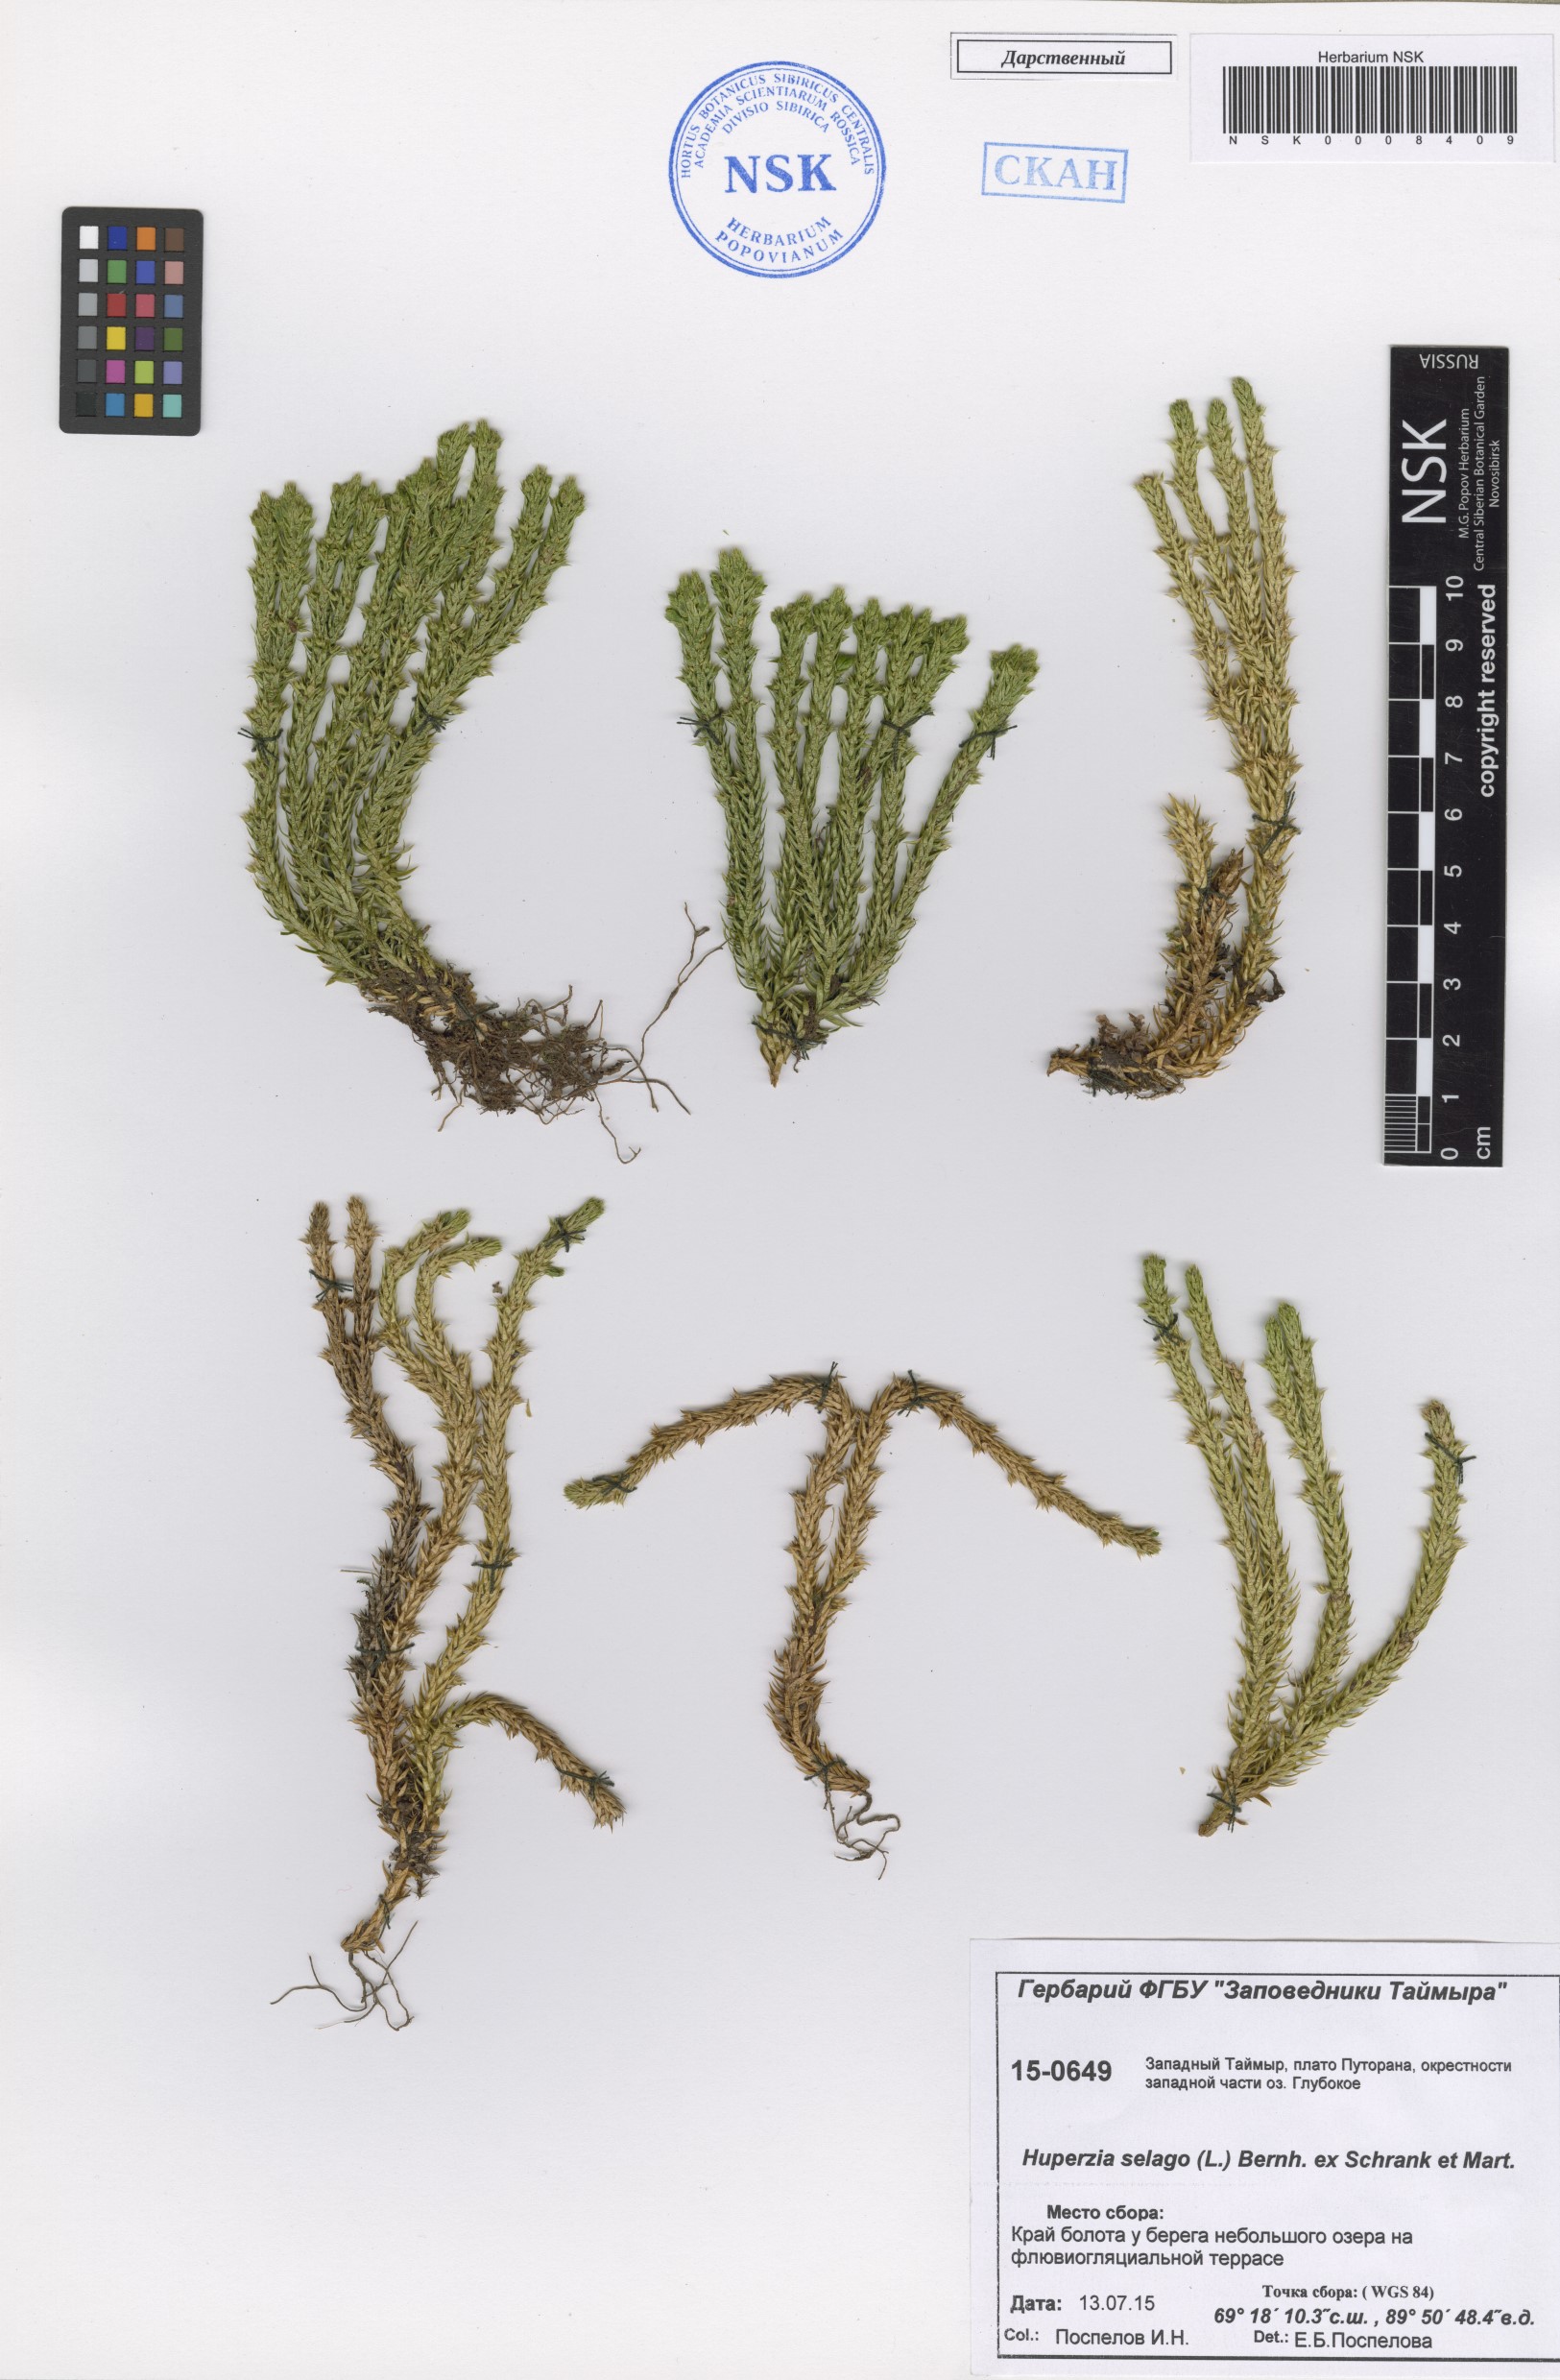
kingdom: Plantae
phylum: Tracheophyta
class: Lycopodiopsida
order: Lycopodiales
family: Lycopodiaceae
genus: Huperzia
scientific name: Huperzia selago
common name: Northern firmoss
